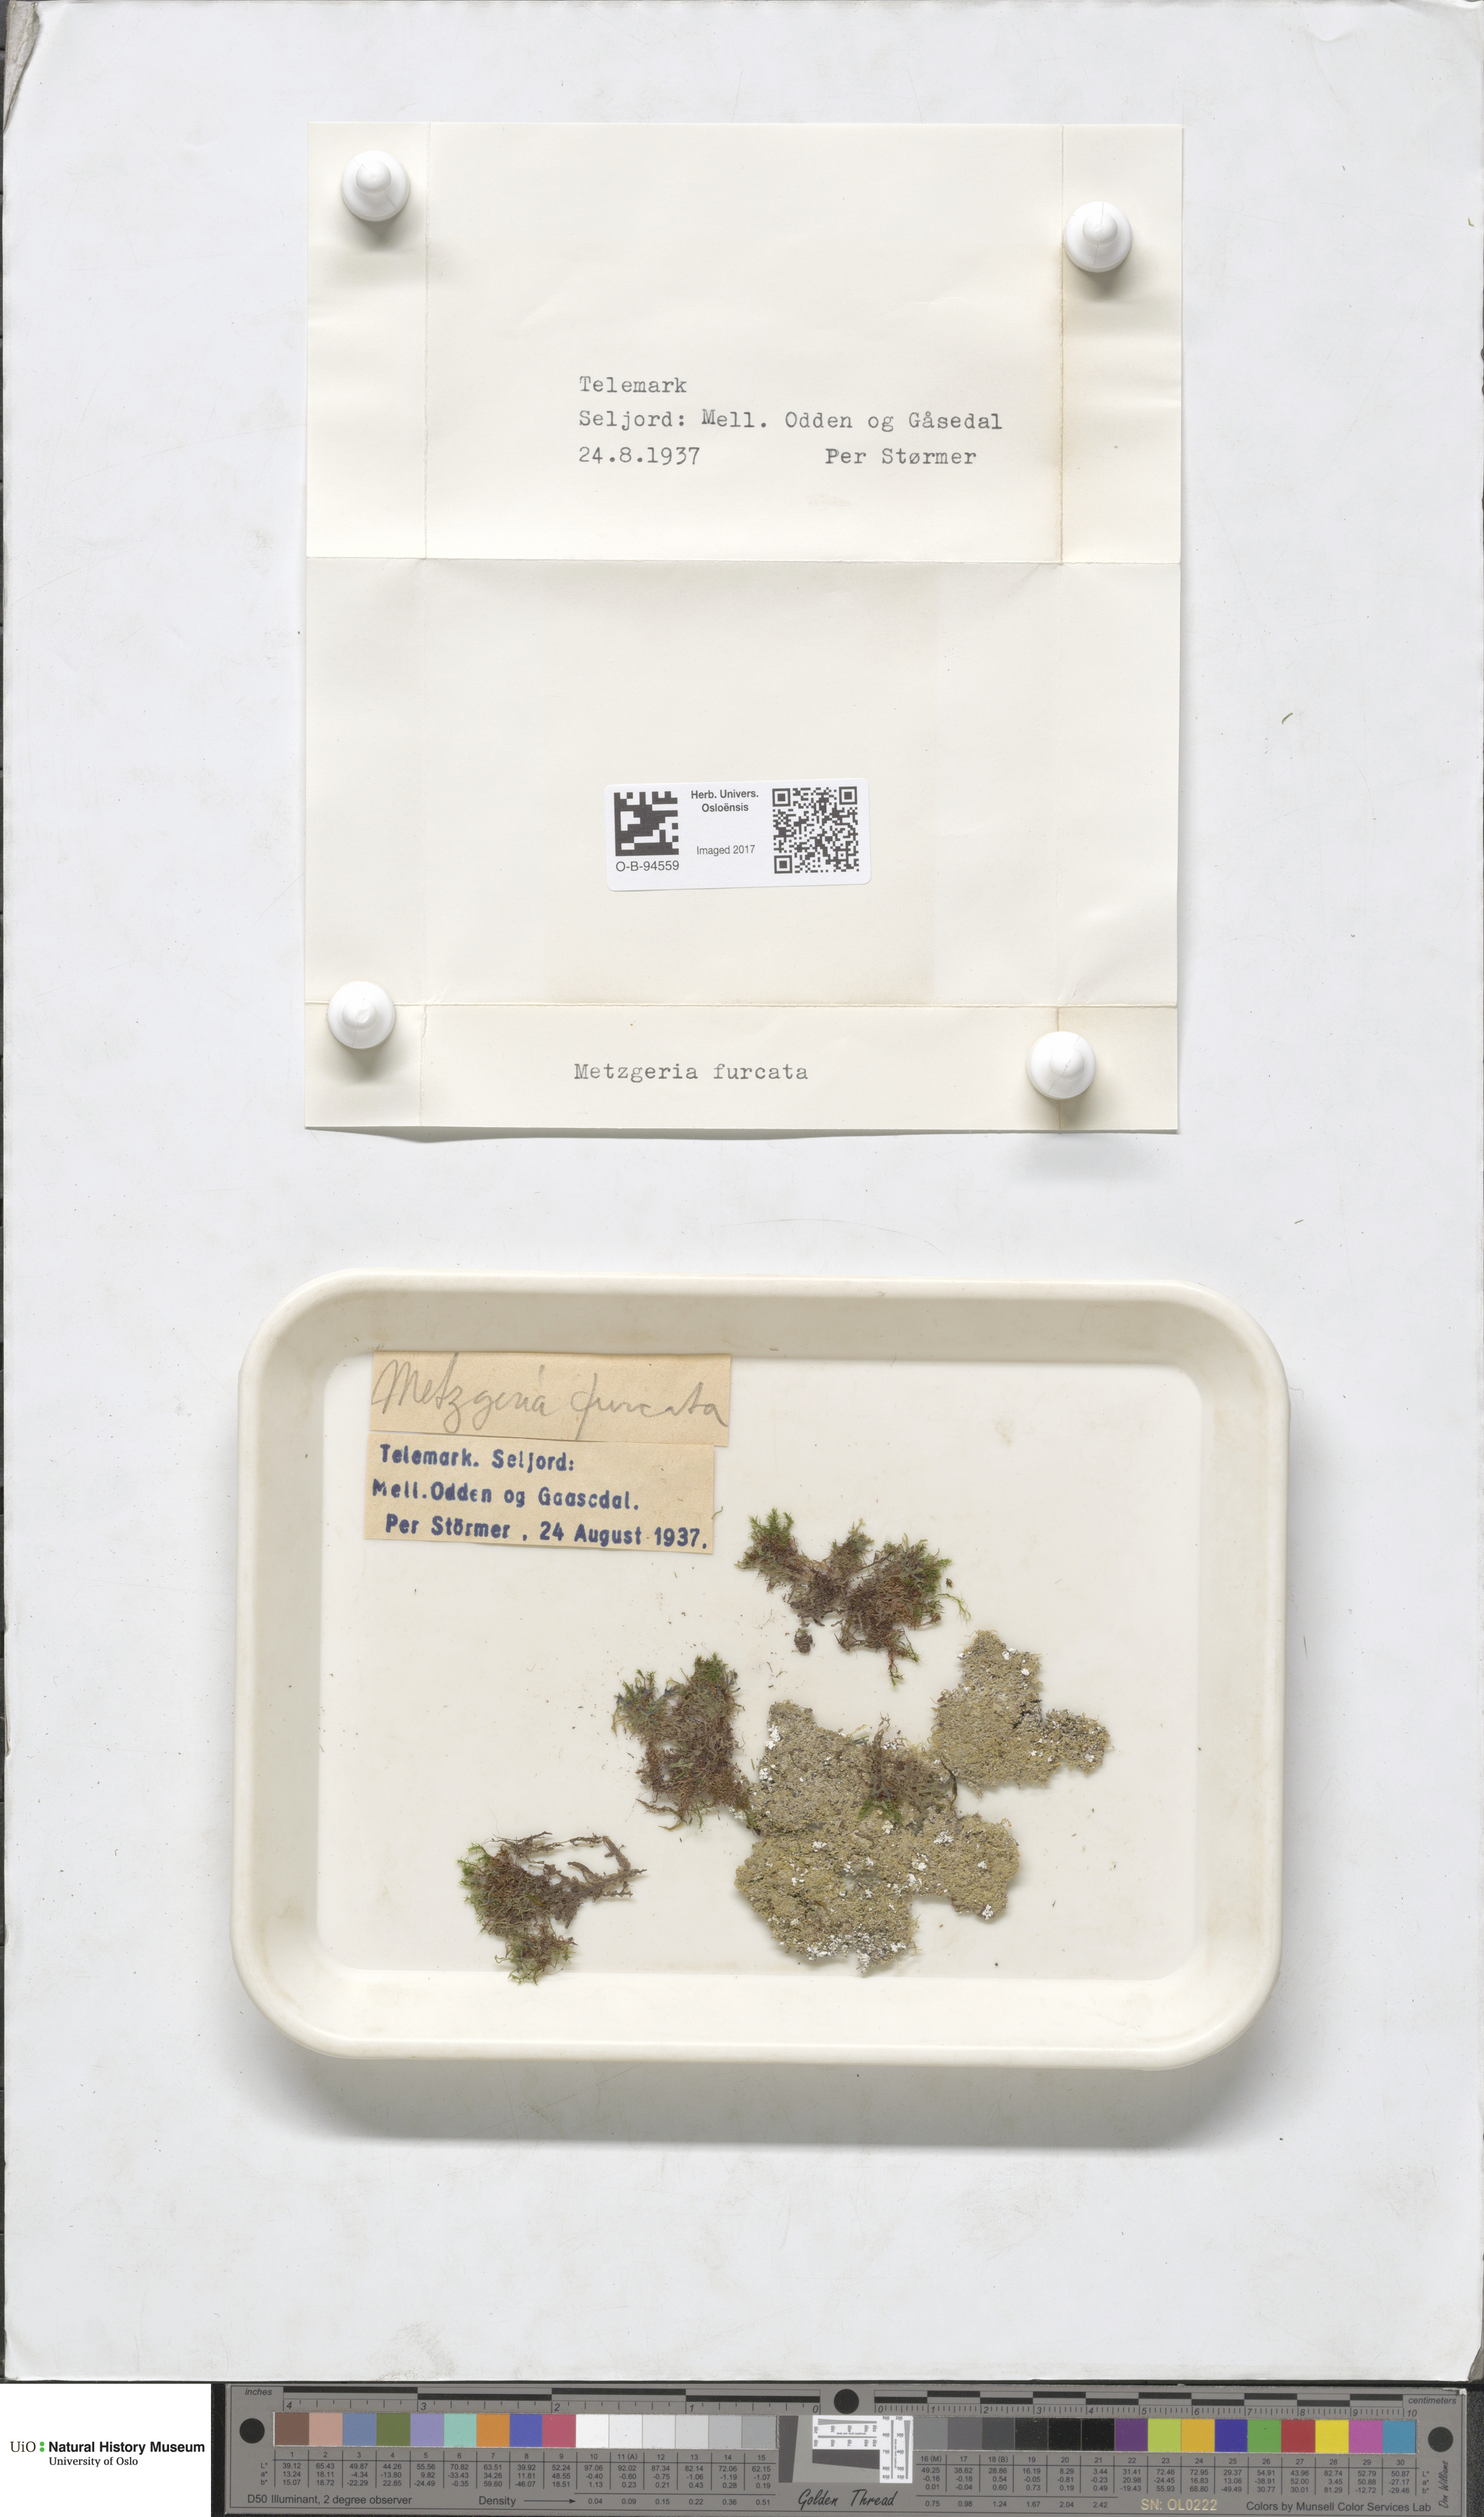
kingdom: Plantae
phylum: Marchantiophyta
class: Jungermanniopsida
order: Metzgeriales
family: Metzgeriaceae
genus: Metzgeria
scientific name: Metzgeria furcata
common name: Forked veilwort
